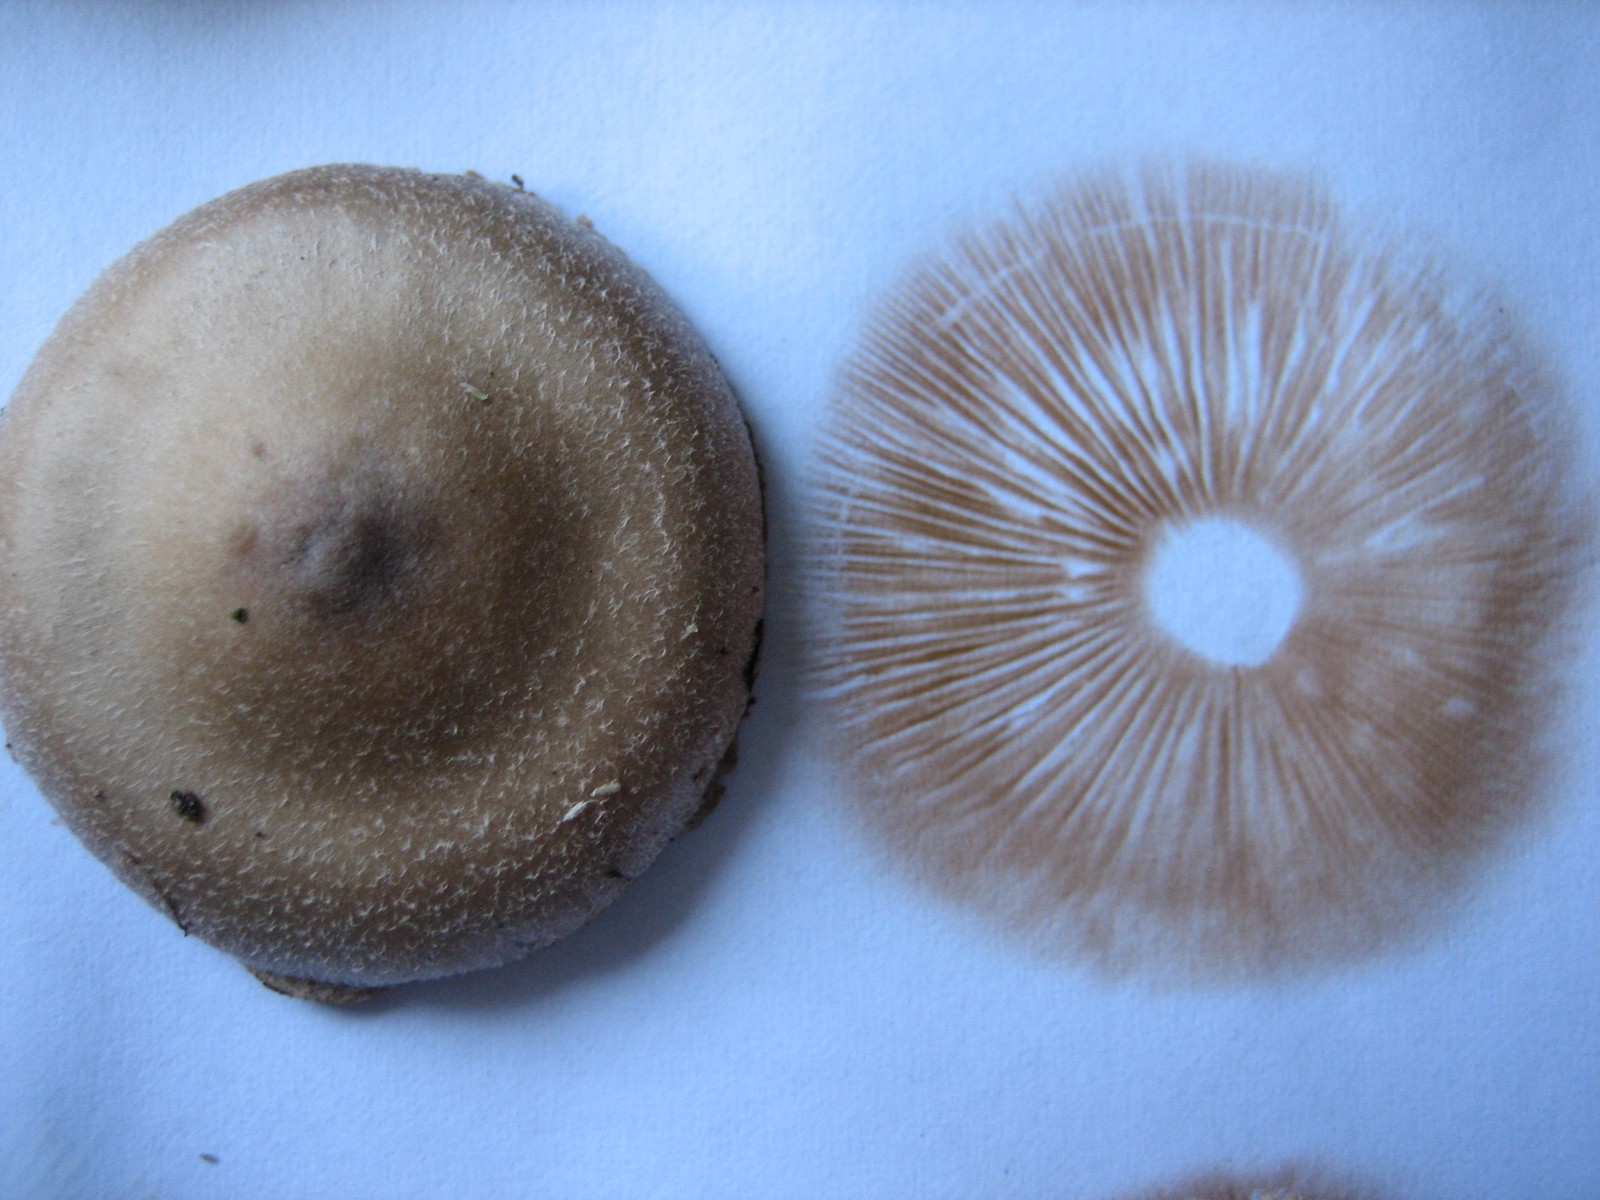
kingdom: Fungi
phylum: Basidiomycota
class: Agaricomycetes
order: Agaricales
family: Cortinariaceae
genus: Cortinarius
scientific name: Cortinarius hemitrichus
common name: hvidfnugget slørhat
